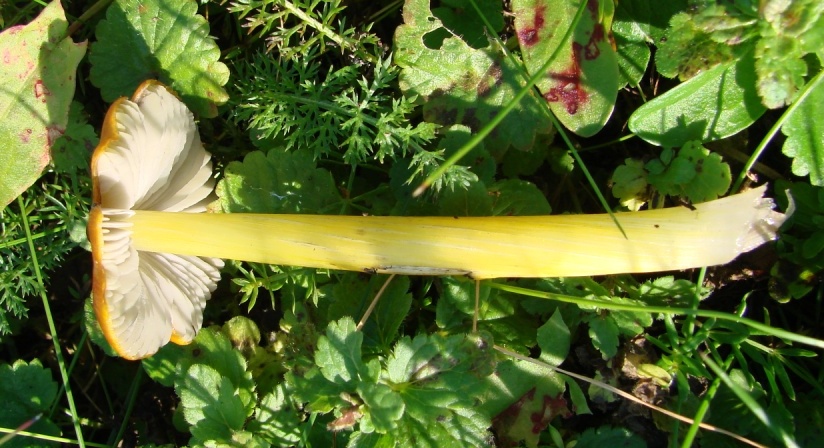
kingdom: Fungi
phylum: Basidiomycota
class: Agaricomycetes
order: Agaricales
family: Hygrophoraceae
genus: Hygrocybe
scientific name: Hygrocybe conica
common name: kegle-vokshat
